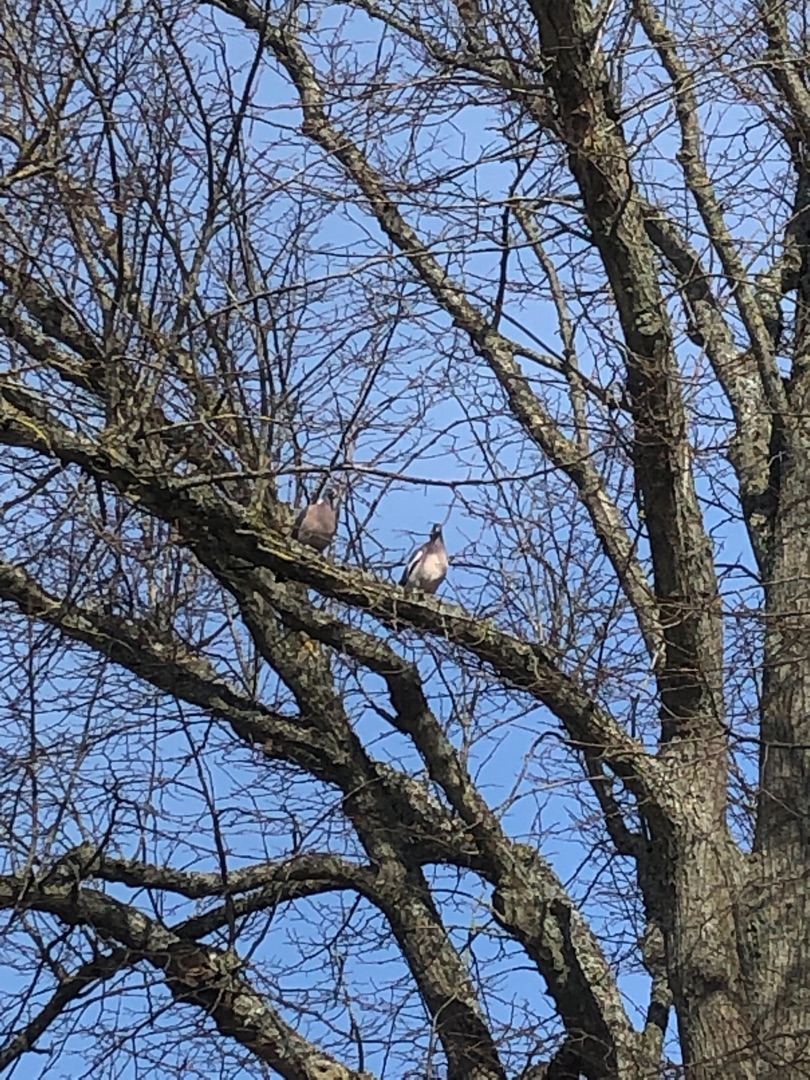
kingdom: Animalia
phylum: Chordata
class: Aves
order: Columbiformes
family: Columbidae
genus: Columba
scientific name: Columba palumbus
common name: Ringdue
